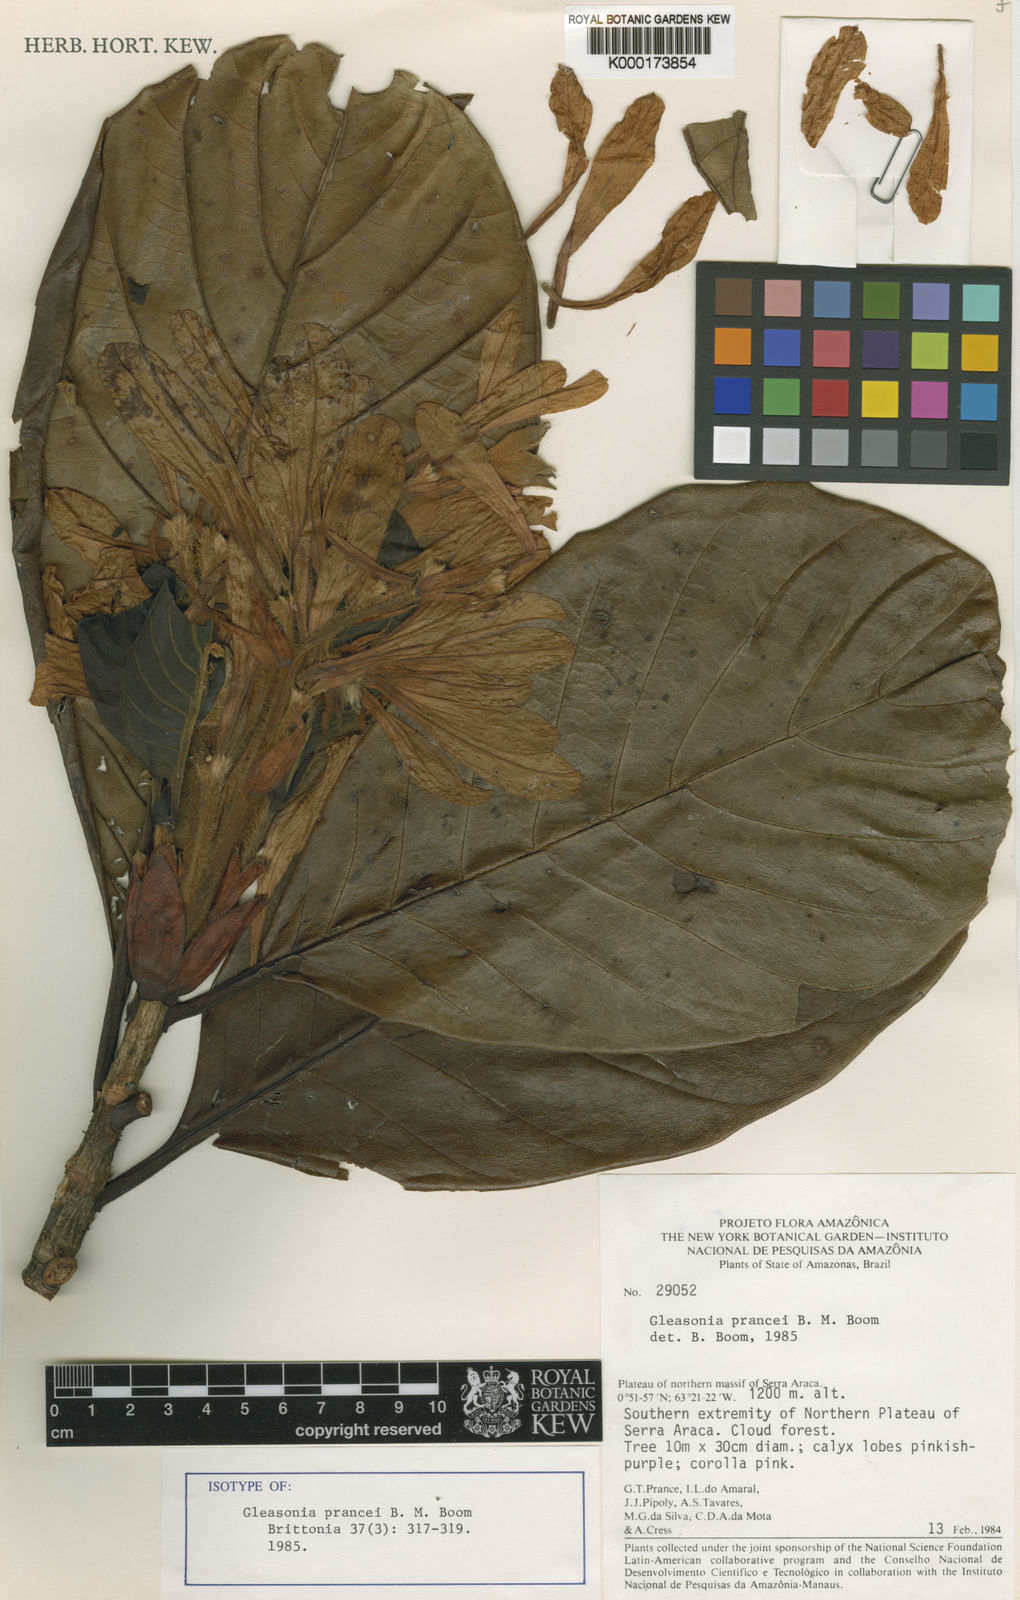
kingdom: Plantae
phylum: Tracheophyta
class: Magnoliopsida
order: Gentianales
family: Rubiaceae
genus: Gleasonia
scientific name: Gleasonia prancei
